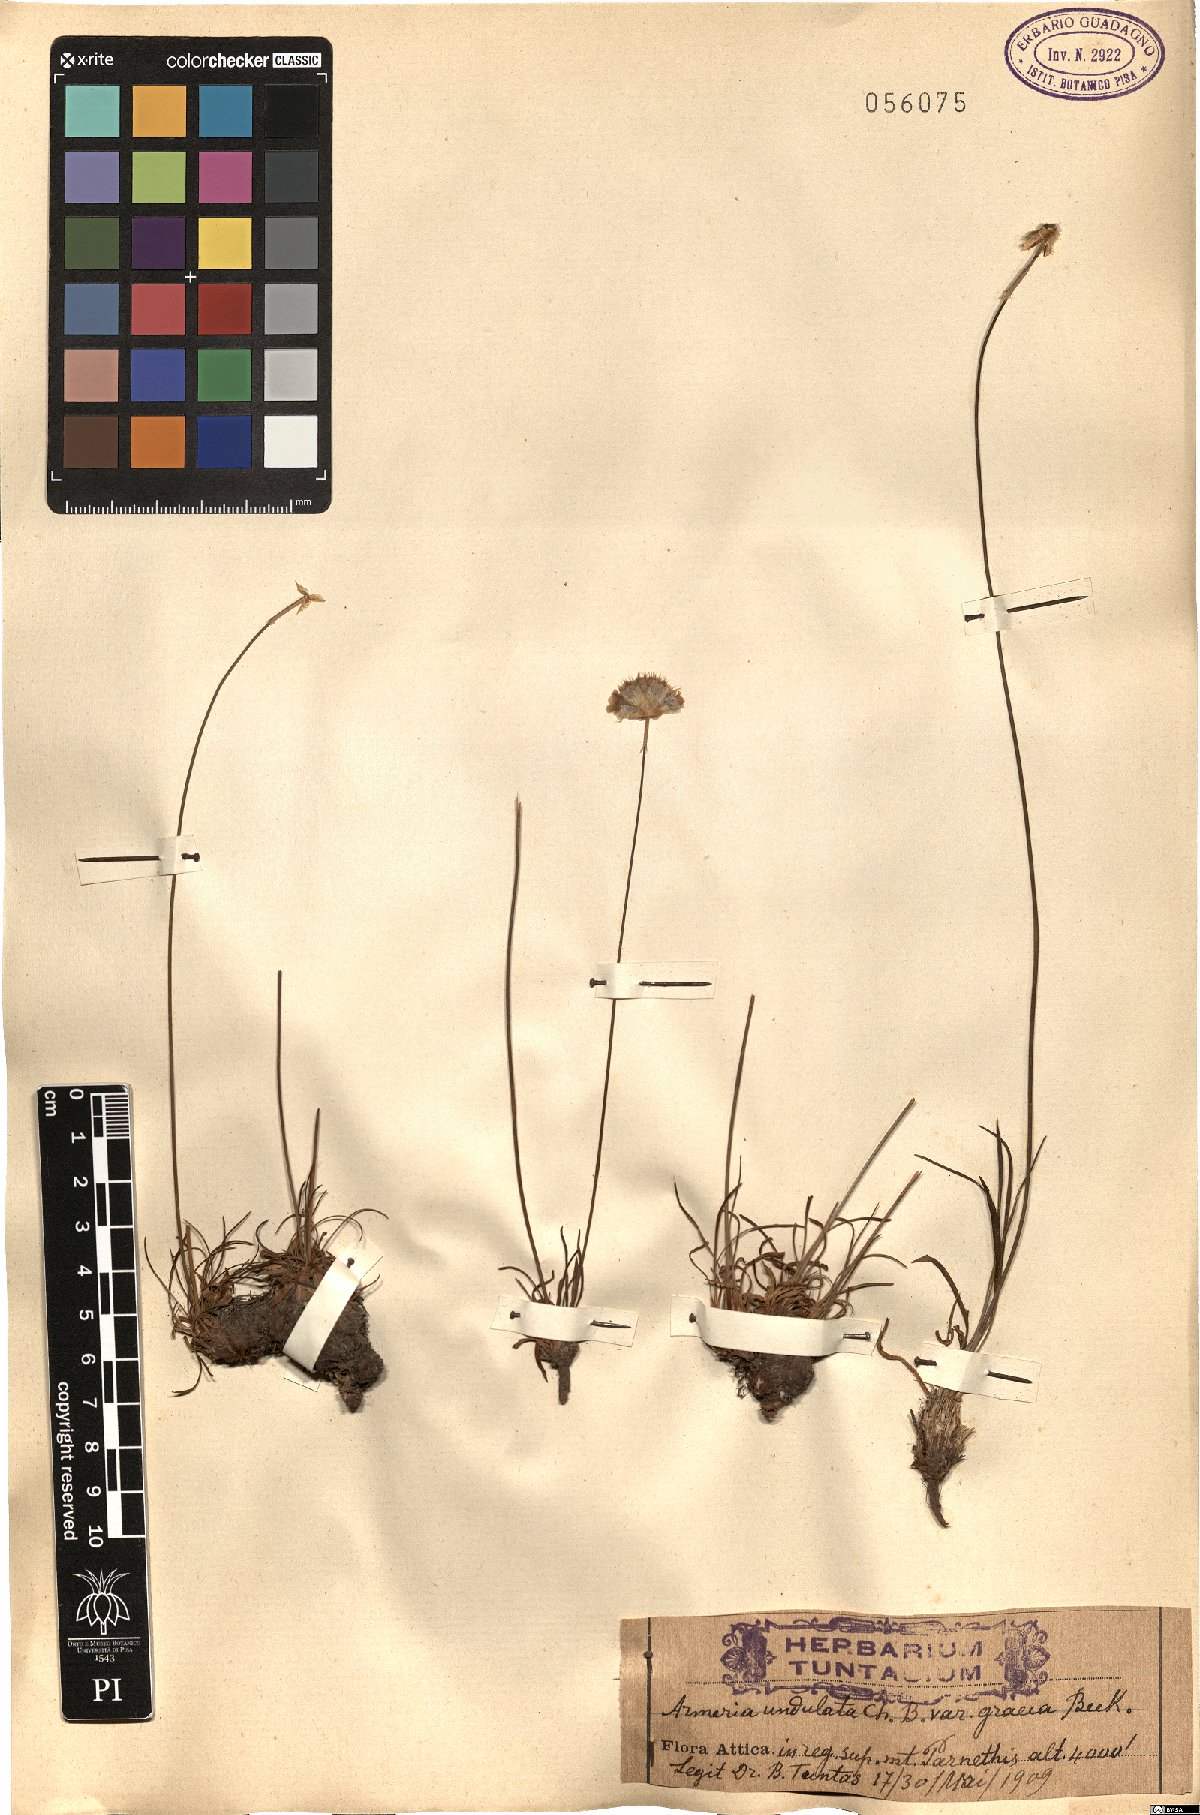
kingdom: Plantae
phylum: Tracheophyta
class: Magnoliopsida
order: Caryophyllales
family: Plumbaginaceae
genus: Armeria
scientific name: Armeria undulata
